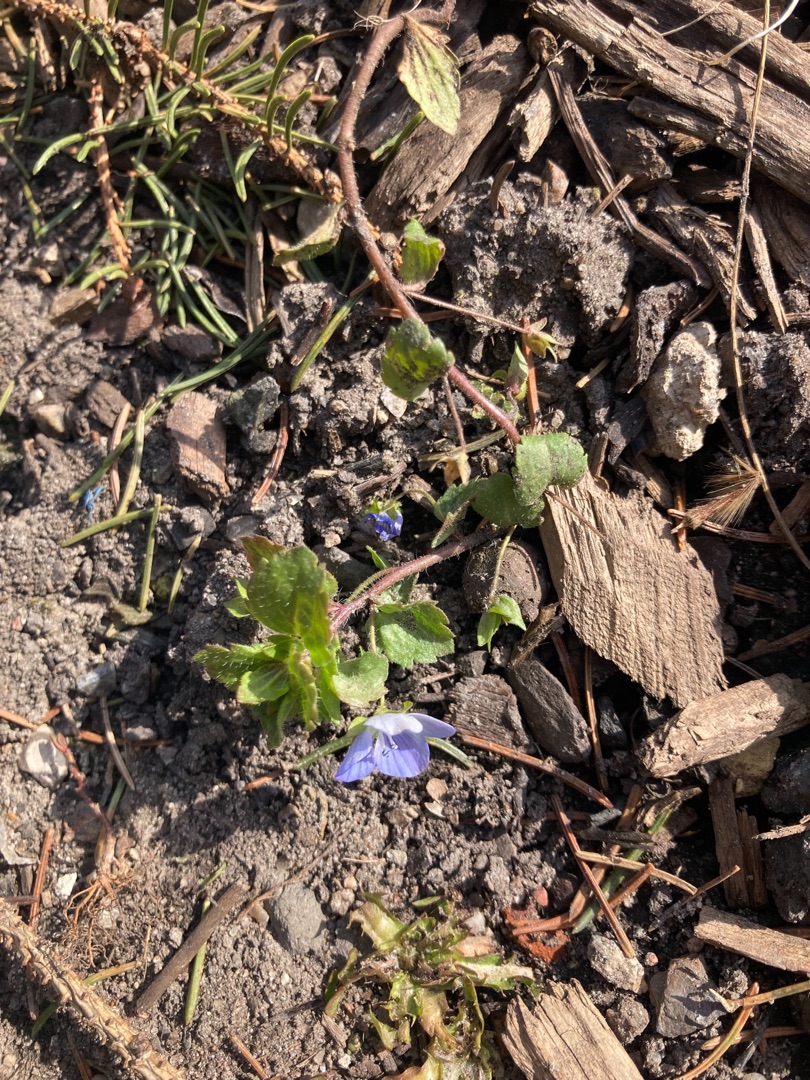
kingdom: Plantae
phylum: Tracheophyta
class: Magnoliopsida
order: Lamiales
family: Plantaginaceae
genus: Veronica
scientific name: Veronica persica
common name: Storkronet ærenpris
